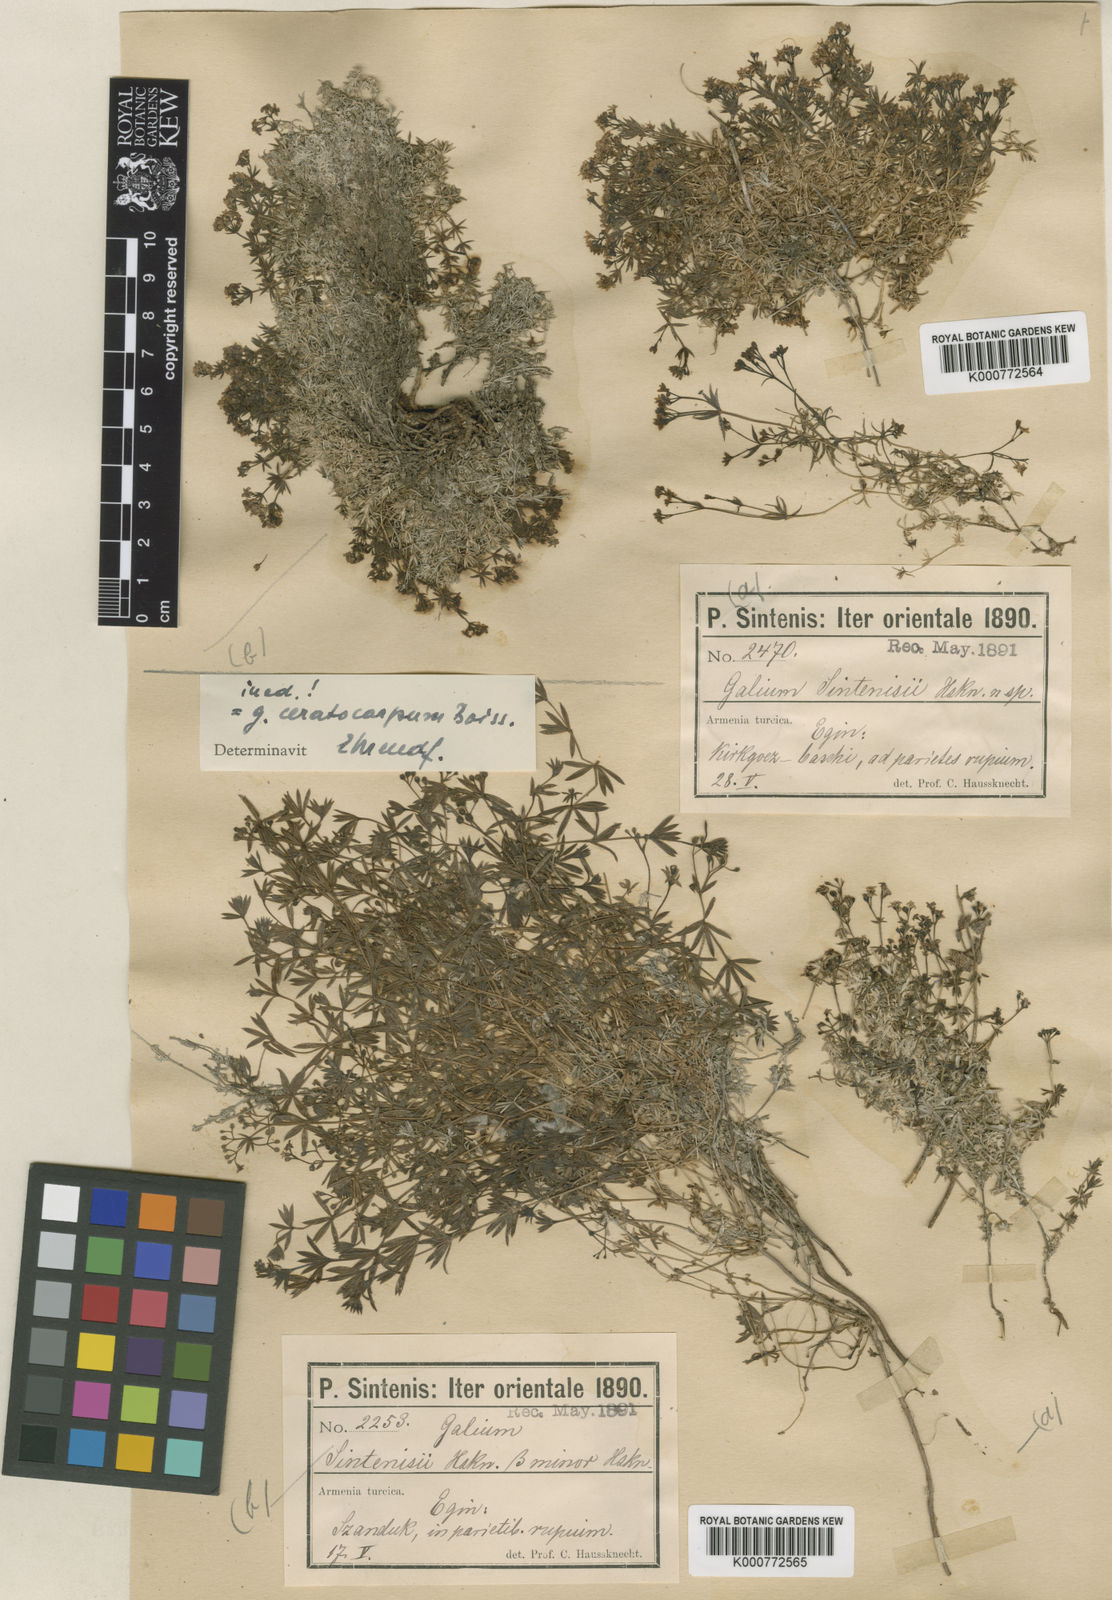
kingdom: Plantae
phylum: Tracheophyta
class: Magnoliopsida
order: Gentianales
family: Rubiaceae
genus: Galium
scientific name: Galium ceratocarpon
